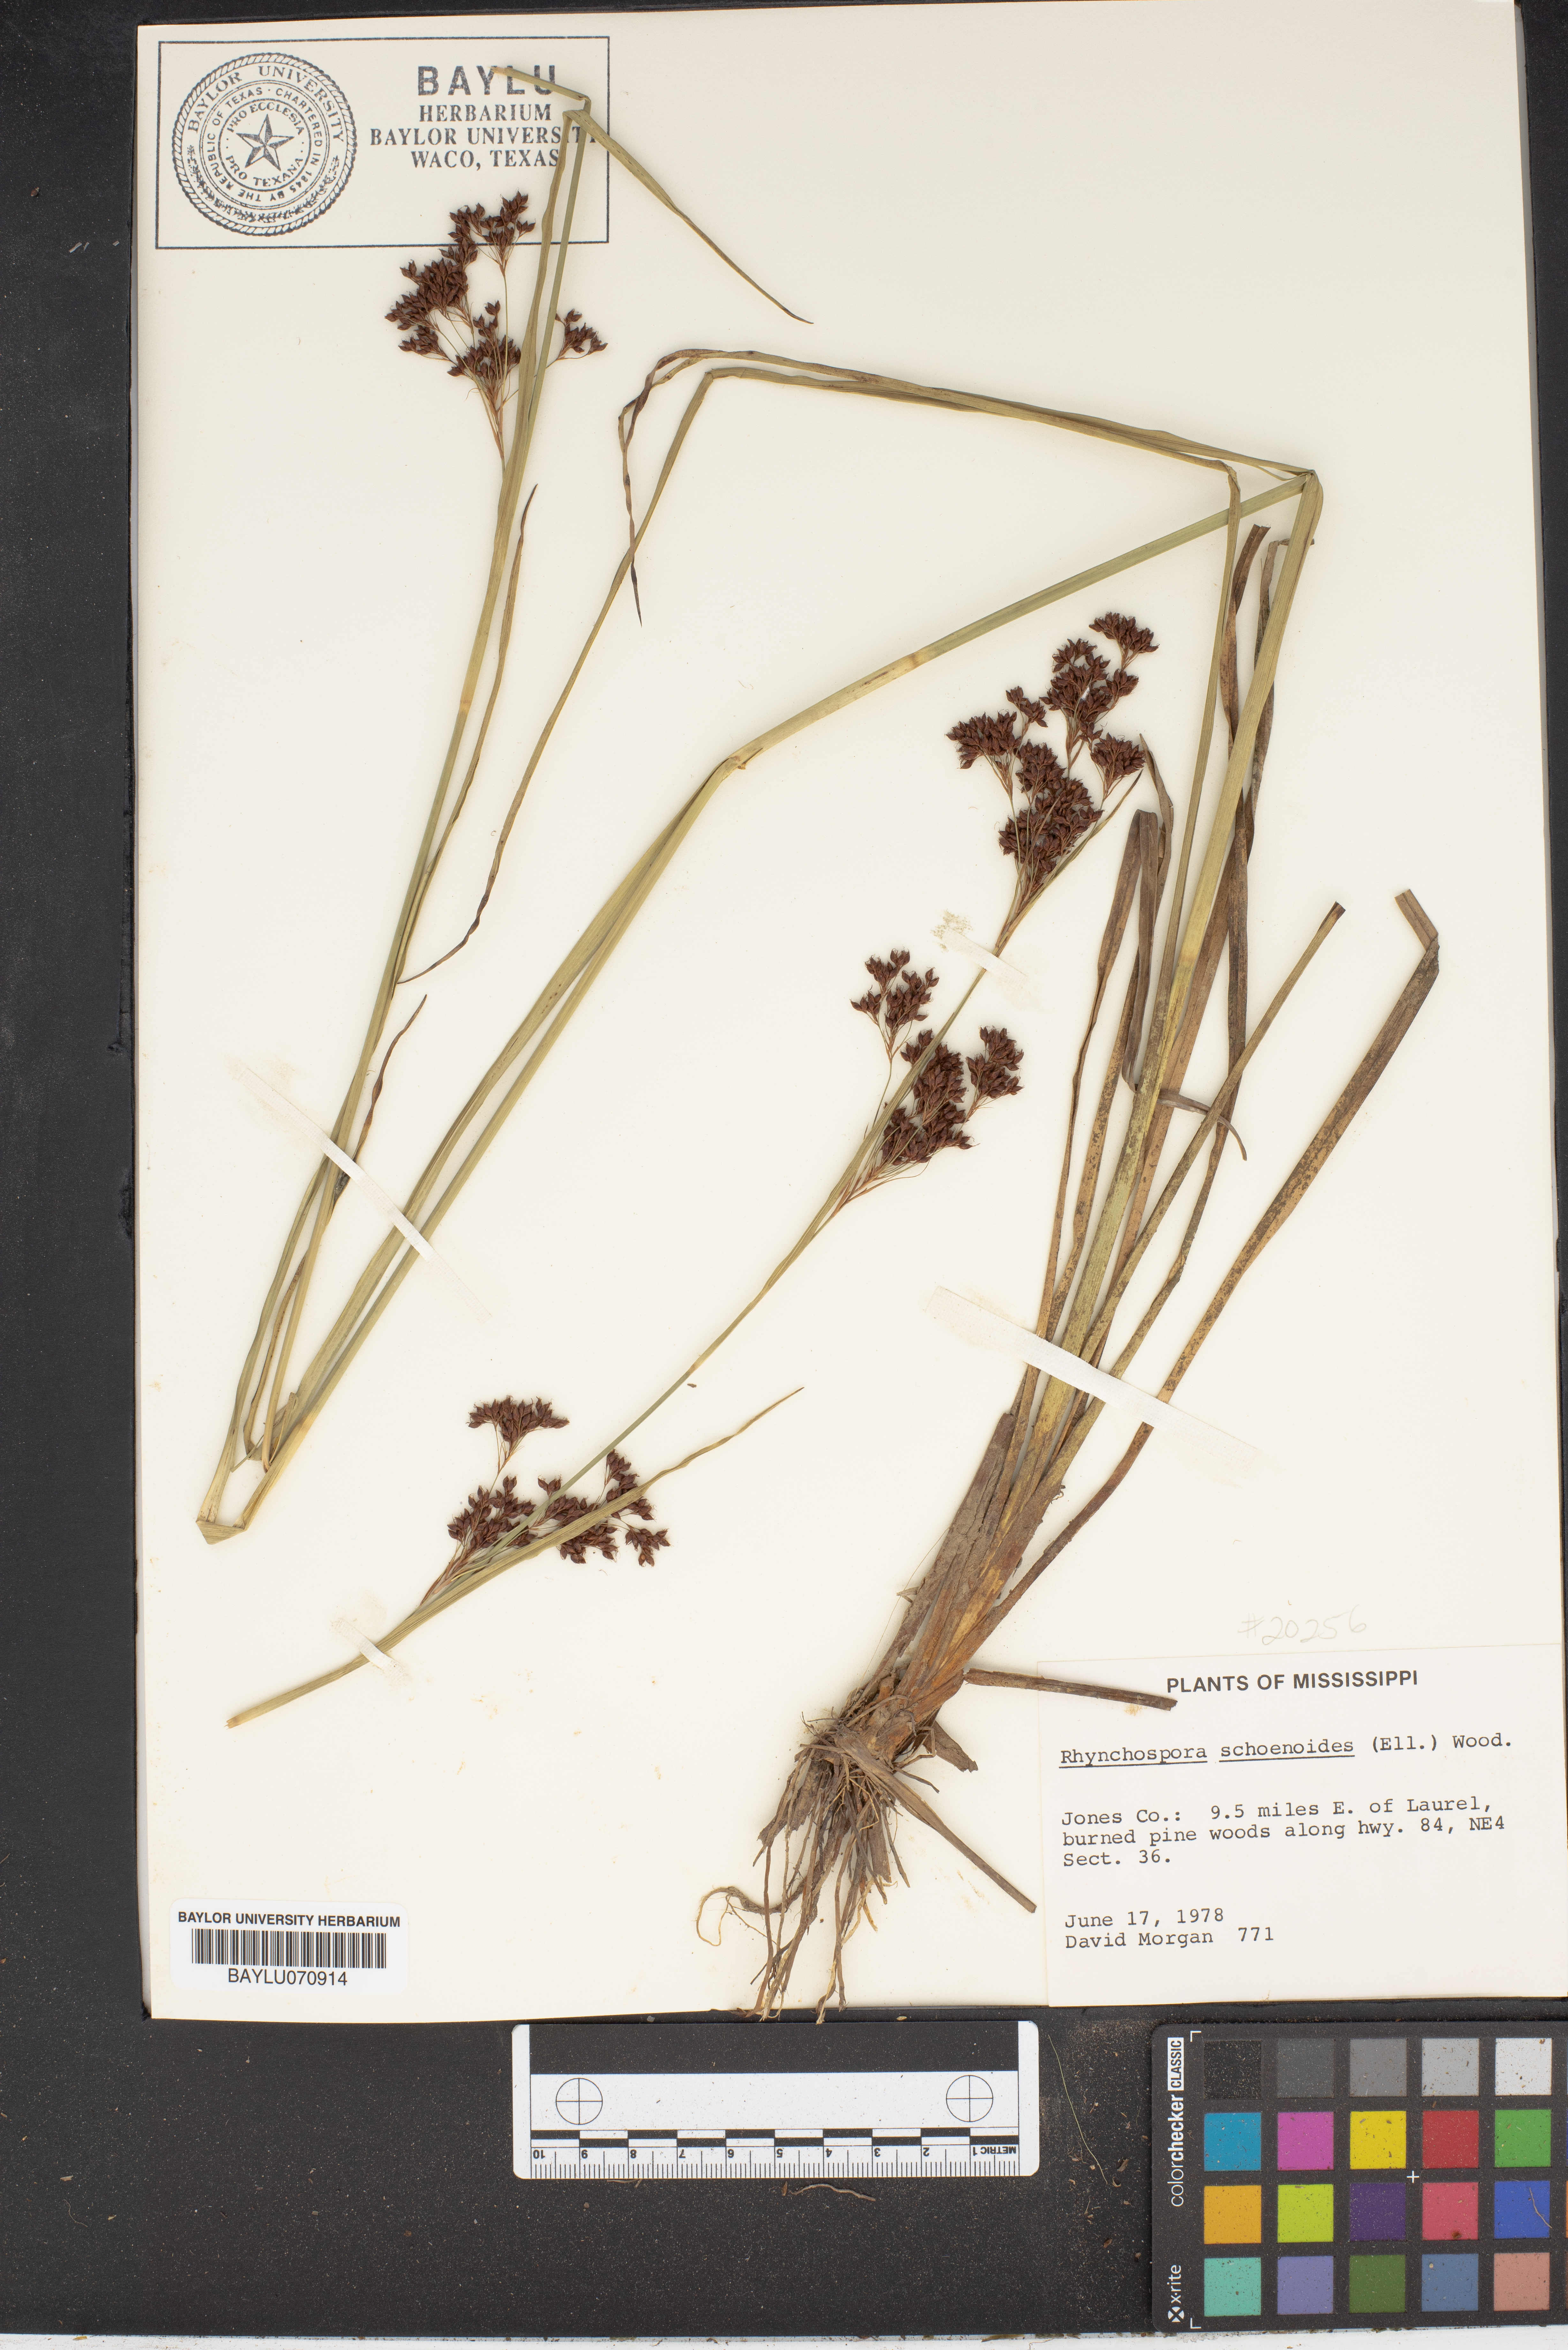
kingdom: Plantae
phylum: Tracheophyta
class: Liliopsida
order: Poales
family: Cyperaceae
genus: Rhynchospora
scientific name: Rhynchospora elliottii
